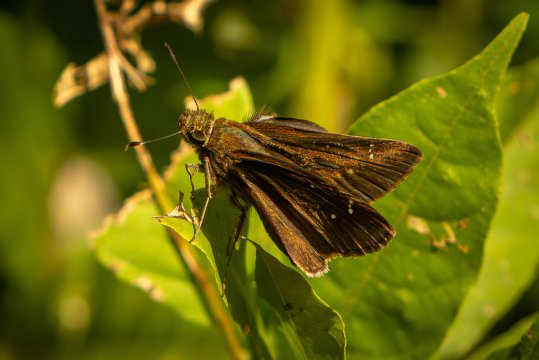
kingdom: Animalia
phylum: Arthropoda
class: Insecta
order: Lepidoptera
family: Hesperiidae
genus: Lerema
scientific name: Lerema accius
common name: Clouded Skipper
